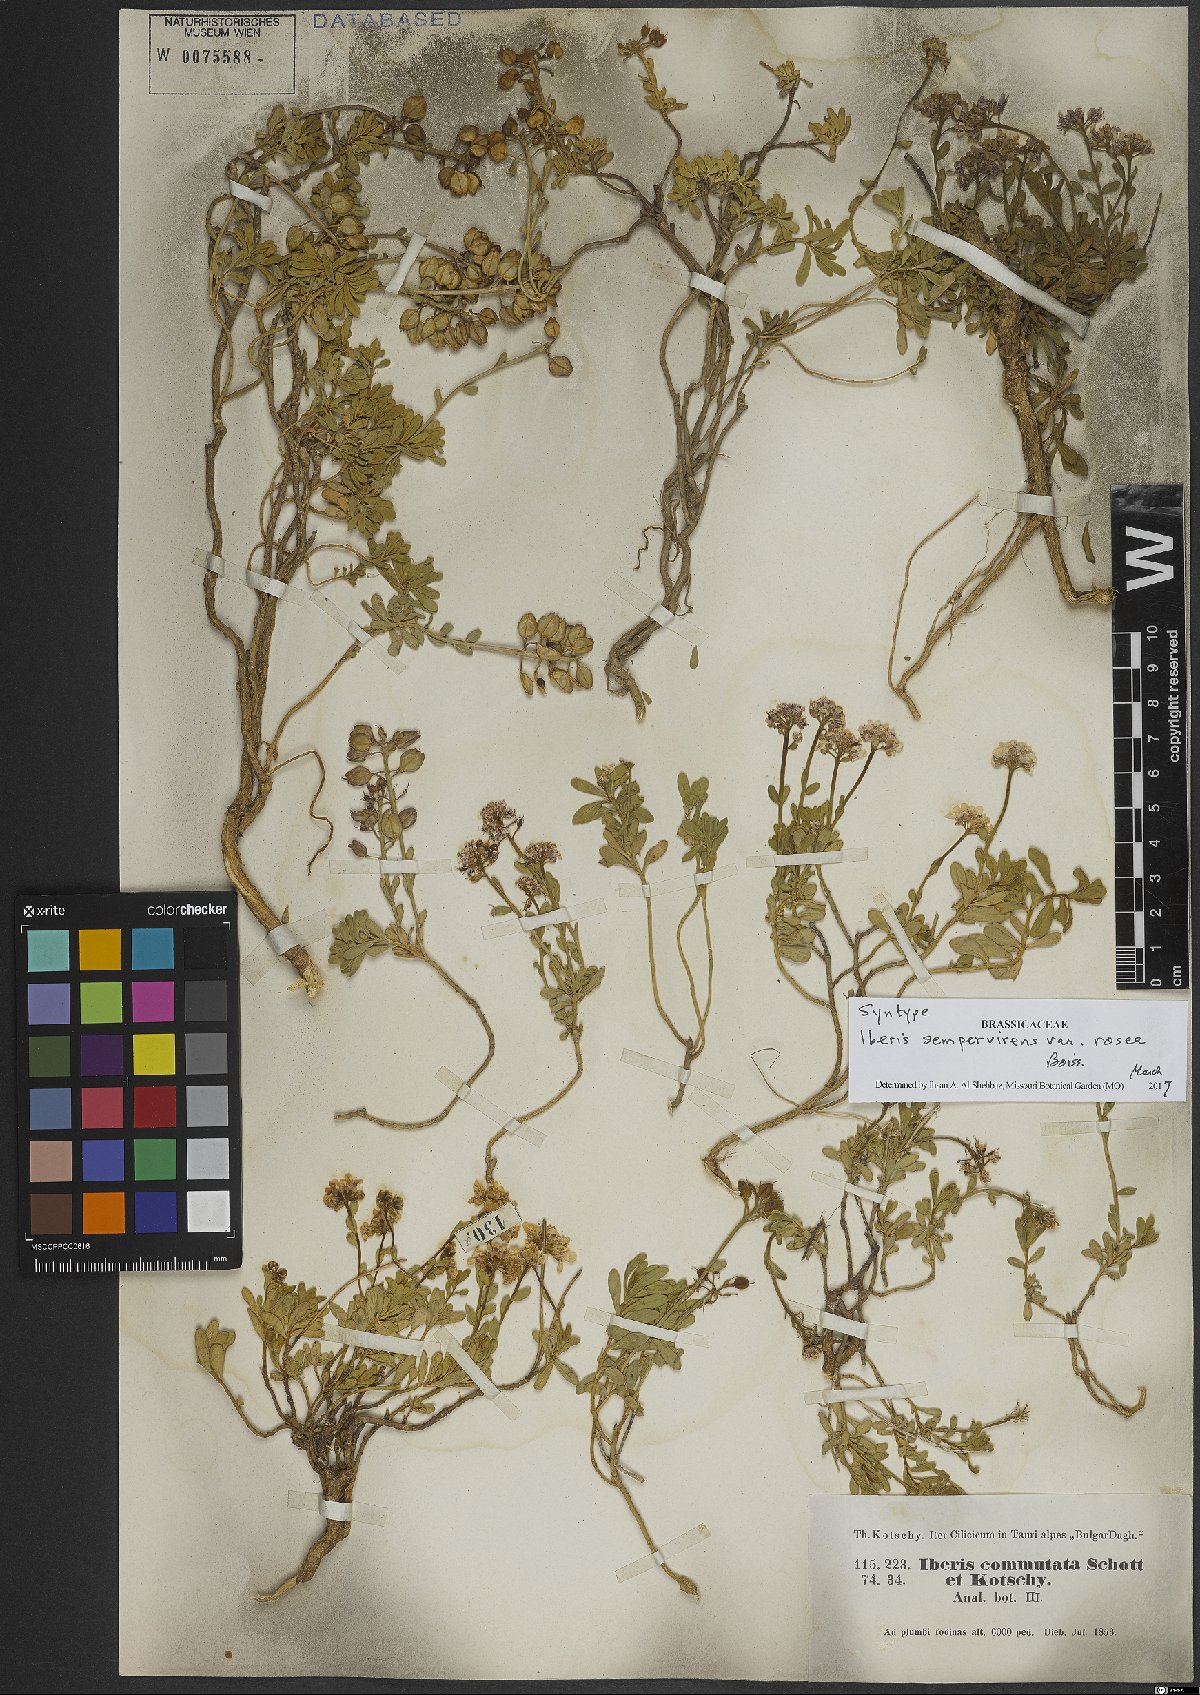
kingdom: Plantae
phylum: Tracheophyta
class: Magnoliopsida
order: Brassicales
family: Brassicaceae
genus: Iberis
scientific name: Iberis sempervirens
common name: Evergreen candytuft
